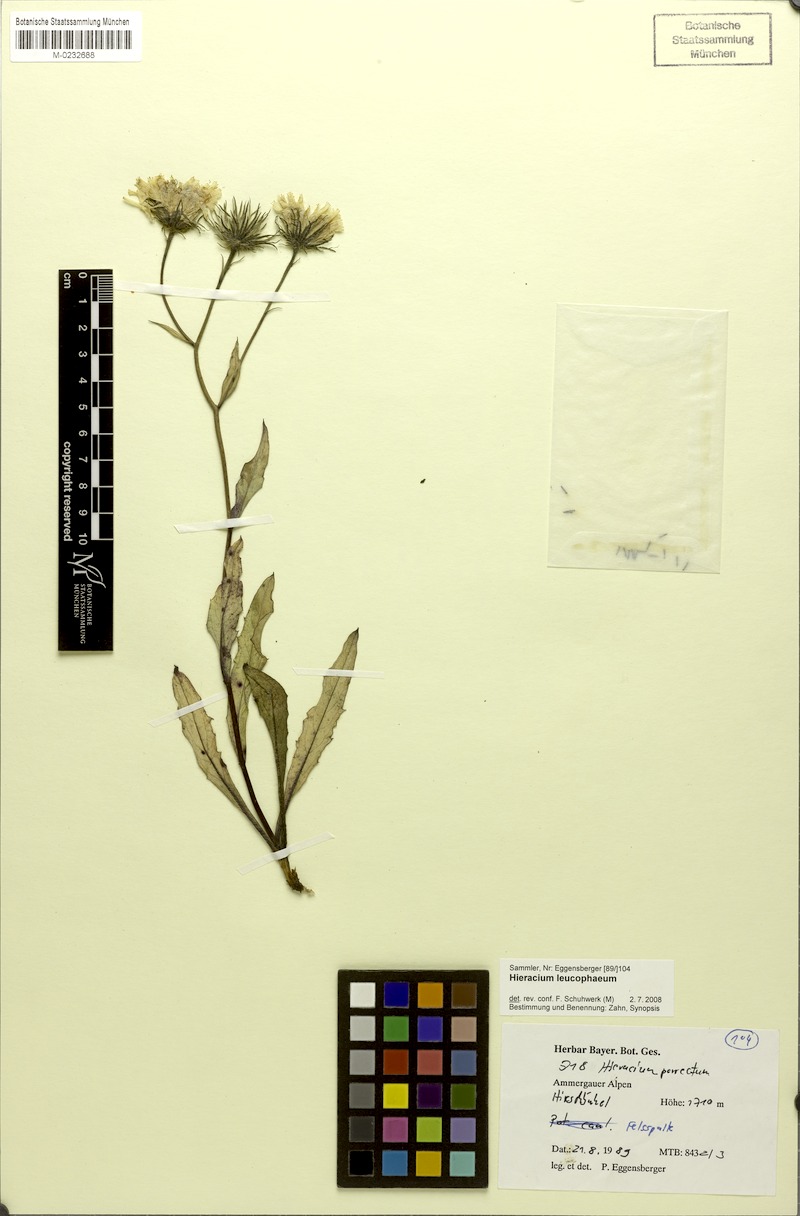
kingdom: Plantae
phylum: Tracheophyta
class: Magnoliopsida
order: Asterales
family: Asteraceae
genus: Hieracium
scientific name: Hieracium leucophaeum
